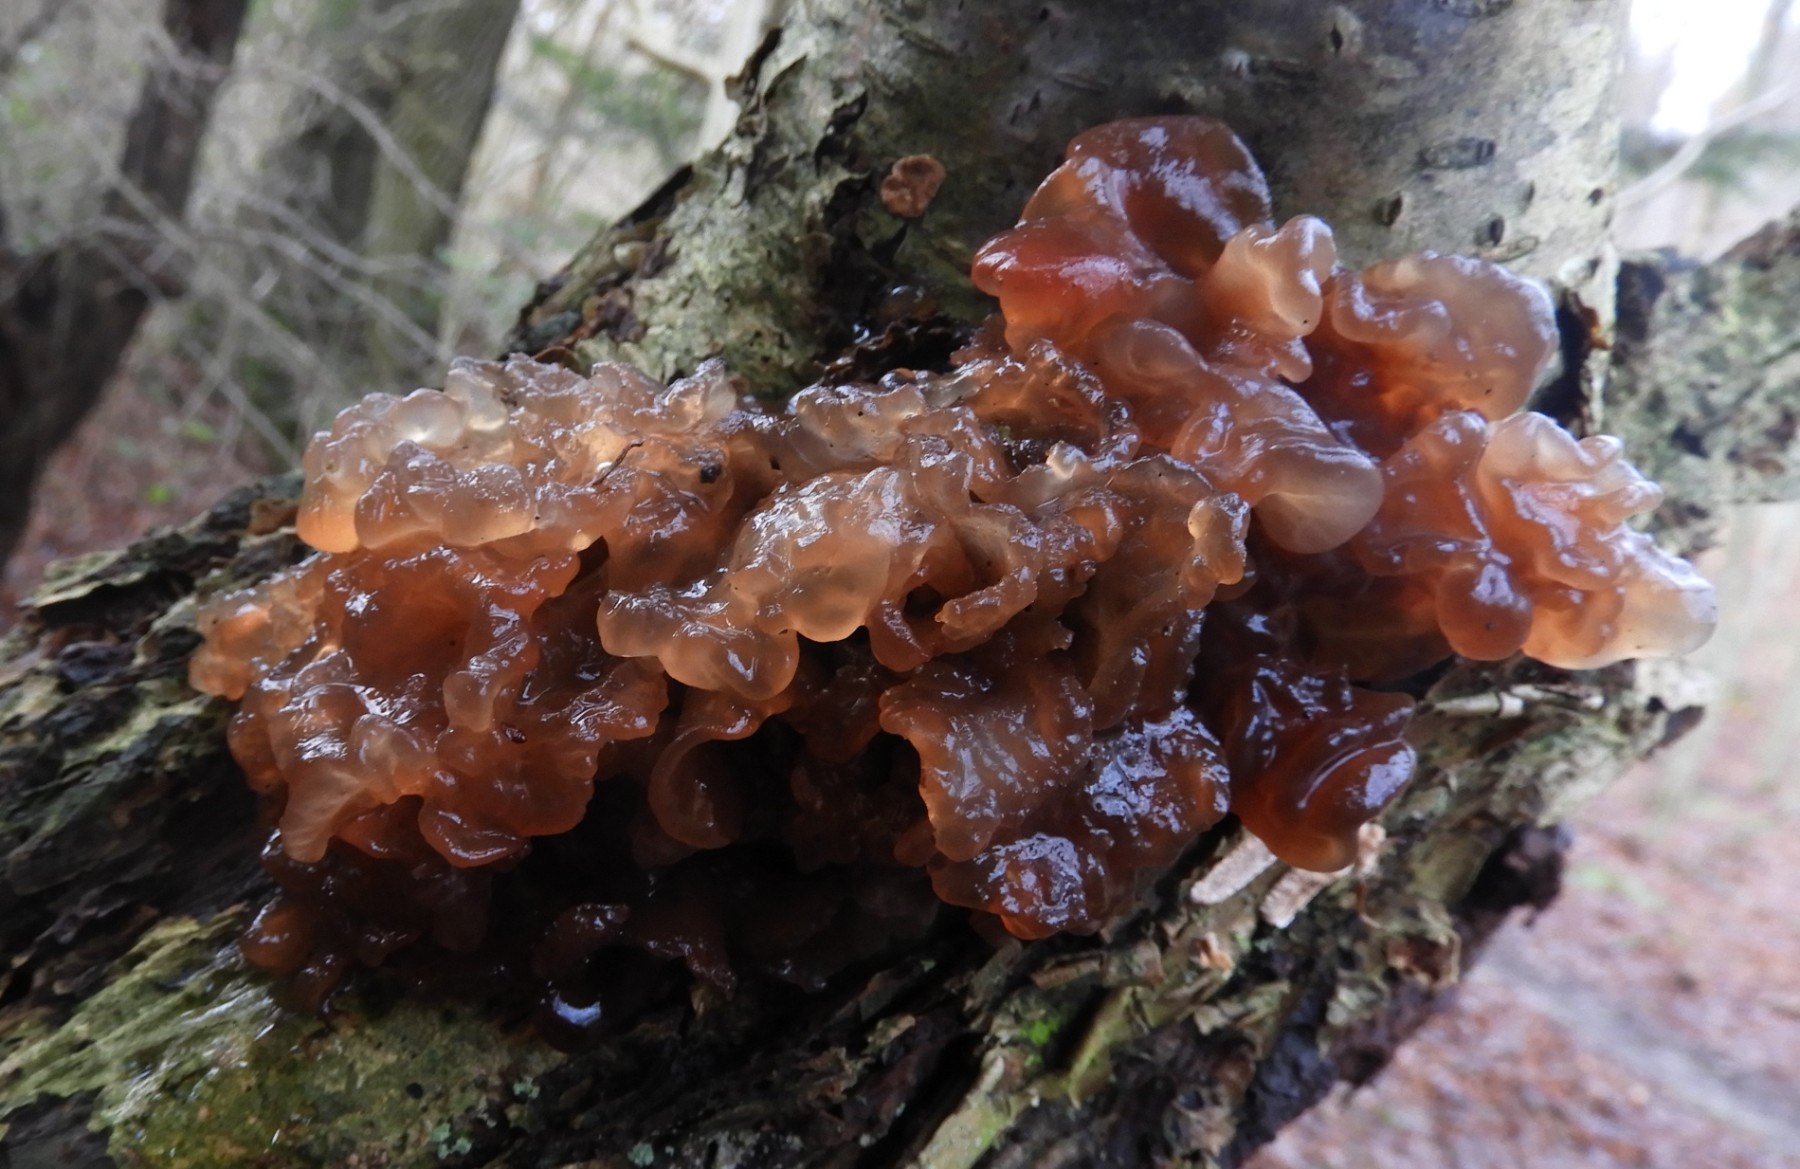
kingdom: Fungi
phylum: Basidiomycota
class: Tremellomycetes
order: Tremellales
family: Tremellaceae
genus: Phaeotremella
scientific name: Phaeotremella frondosa
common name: kæmpe-bævresvamp
